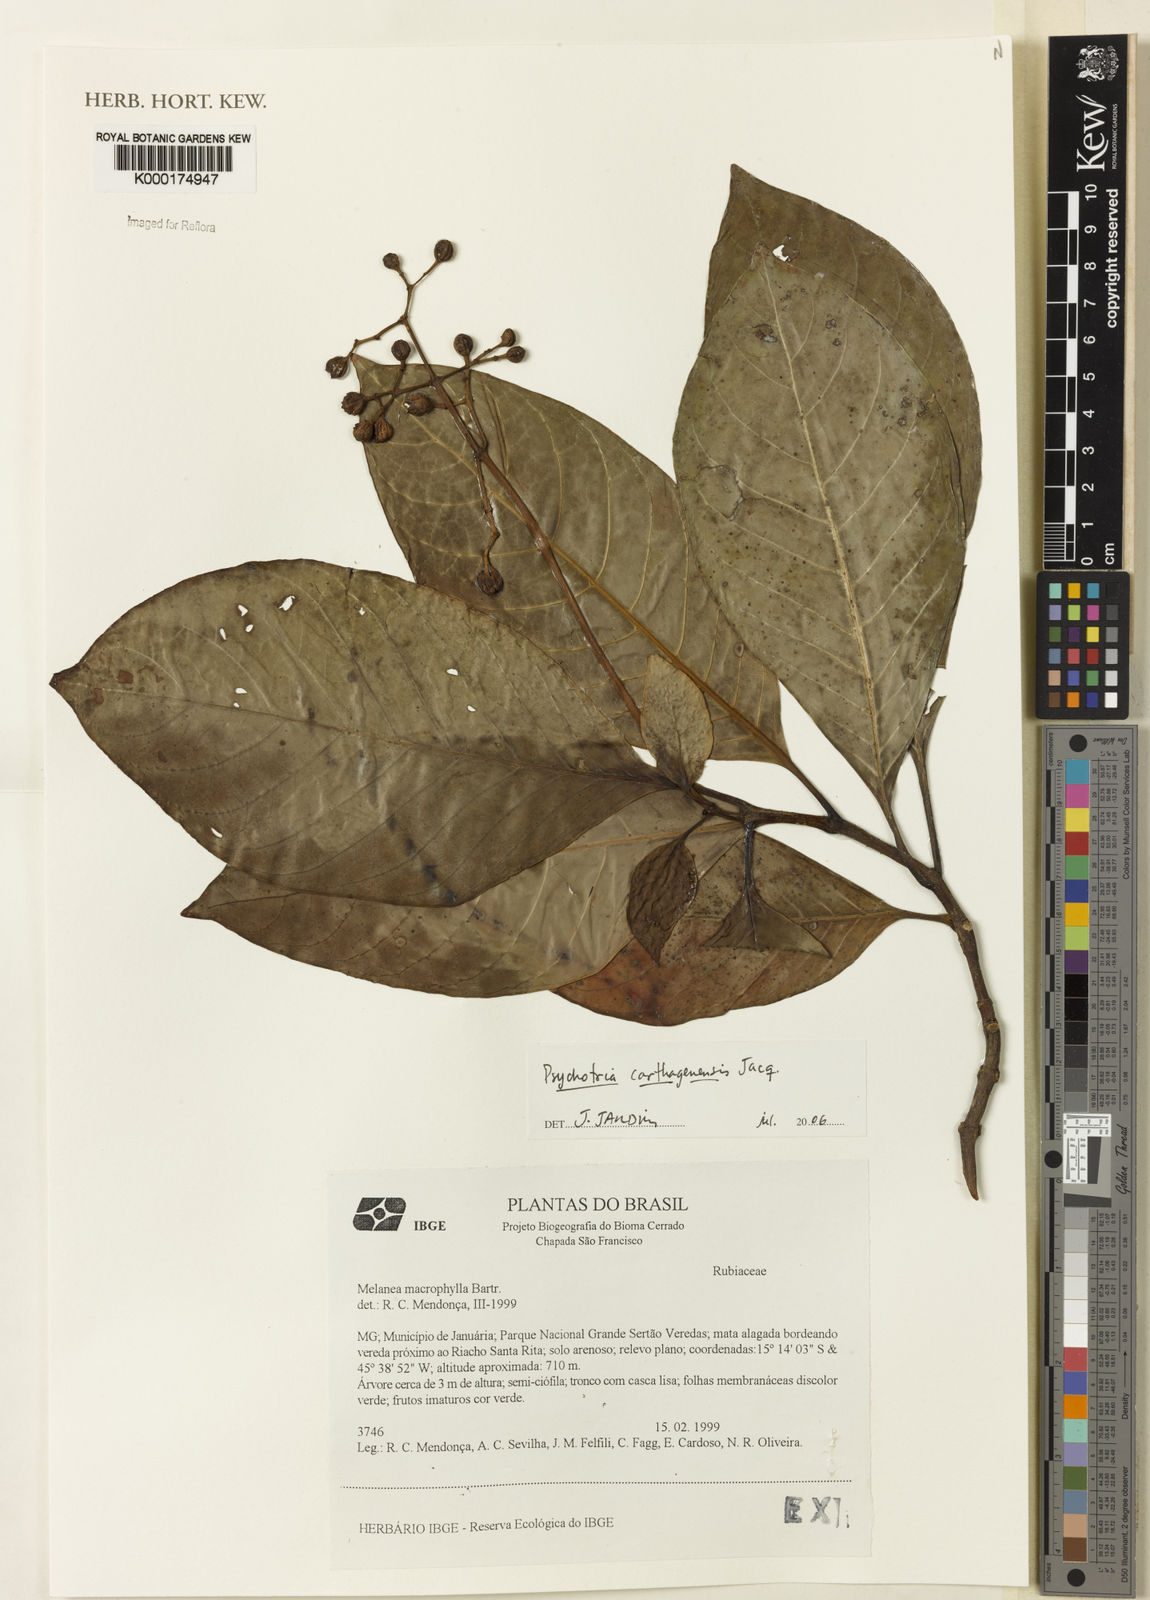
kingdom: Plantae
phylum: Tracheophyta
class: Magnoliopsida
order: Gentianales
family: Rubiaceae
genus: Psychotria
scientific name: Psychotria carthagenensis
